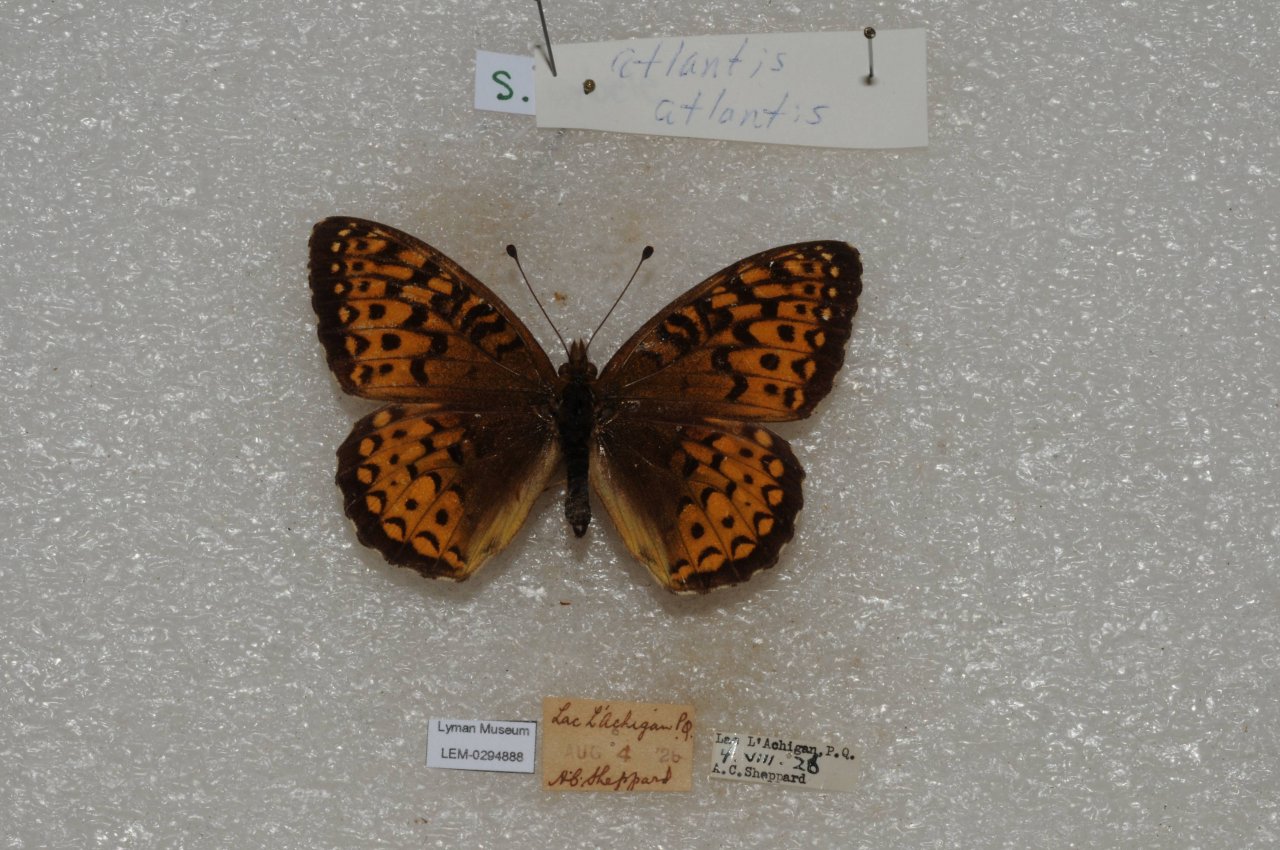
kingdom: Animalia
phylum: Arthropoda
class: Insecta
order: Lepidoptera
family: Nymphalidae
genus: Speyeria
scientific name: Speyeria atlantis
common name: Atlantis Fritillary
